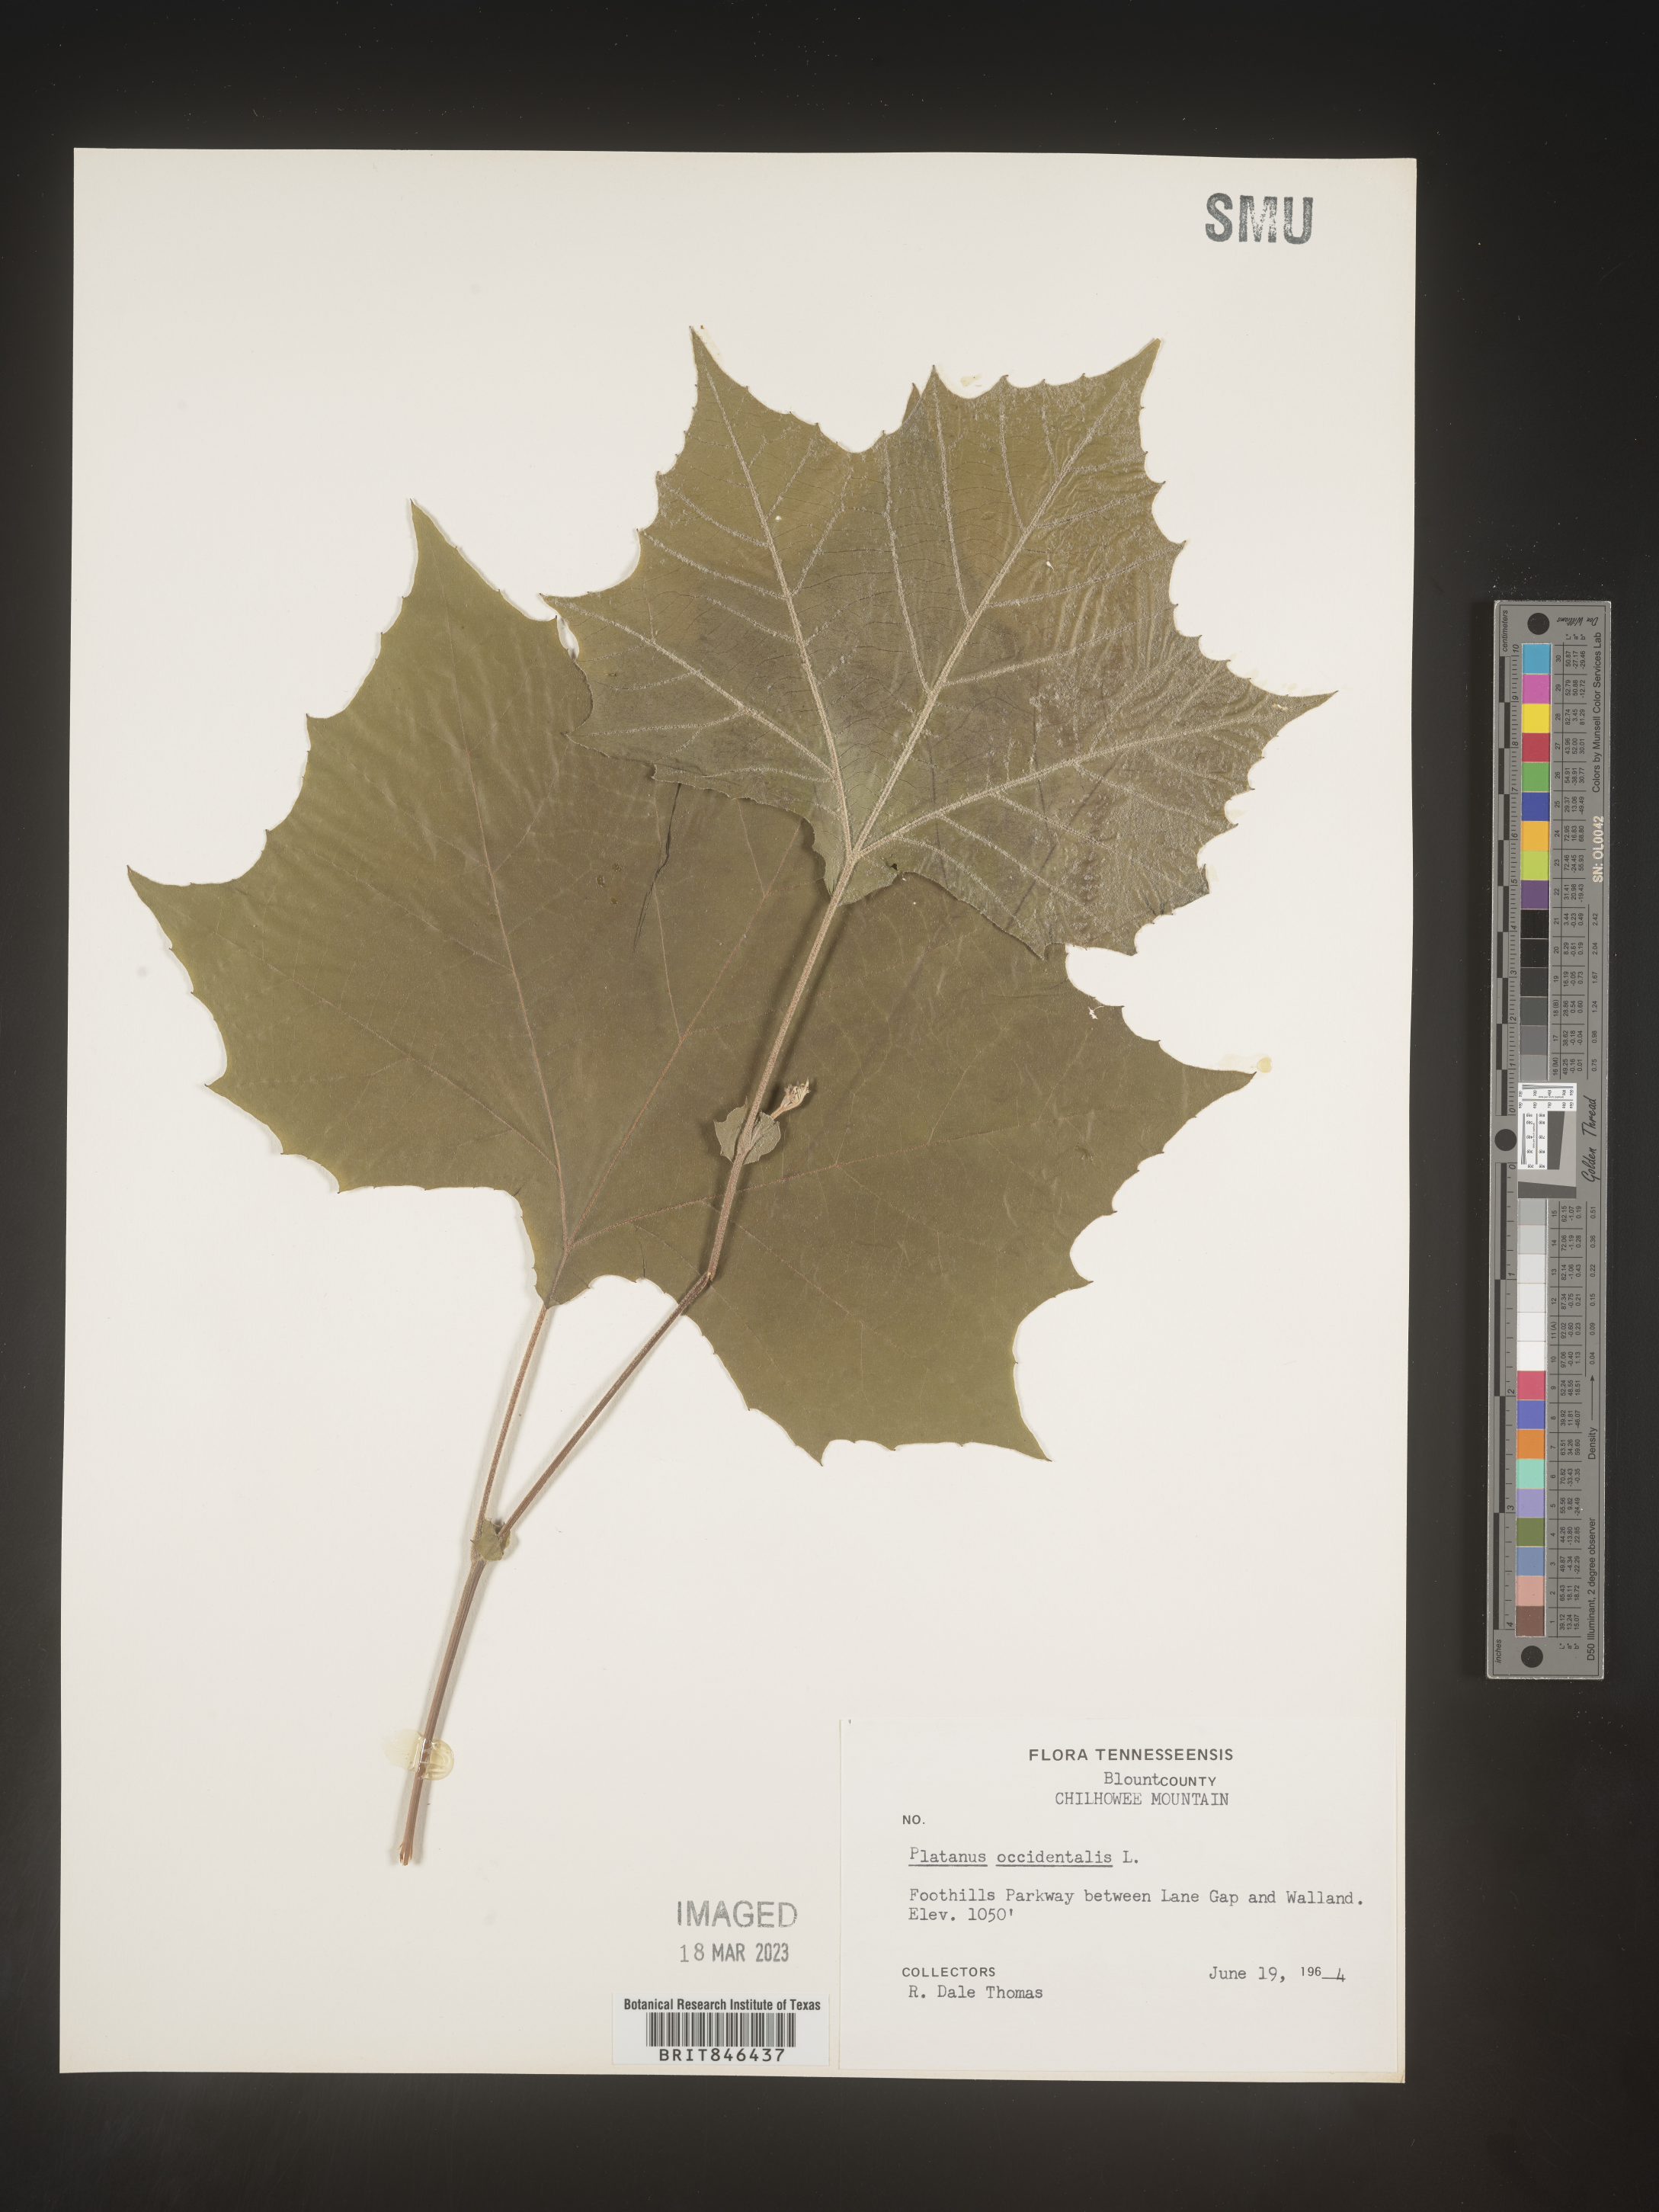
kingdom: Plantae
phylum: Tracheophyta
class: Magnoliopsida
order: Proteales
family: Platanaceae
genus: Platanus
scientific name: Platanus occidentalis
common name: American sycamore
